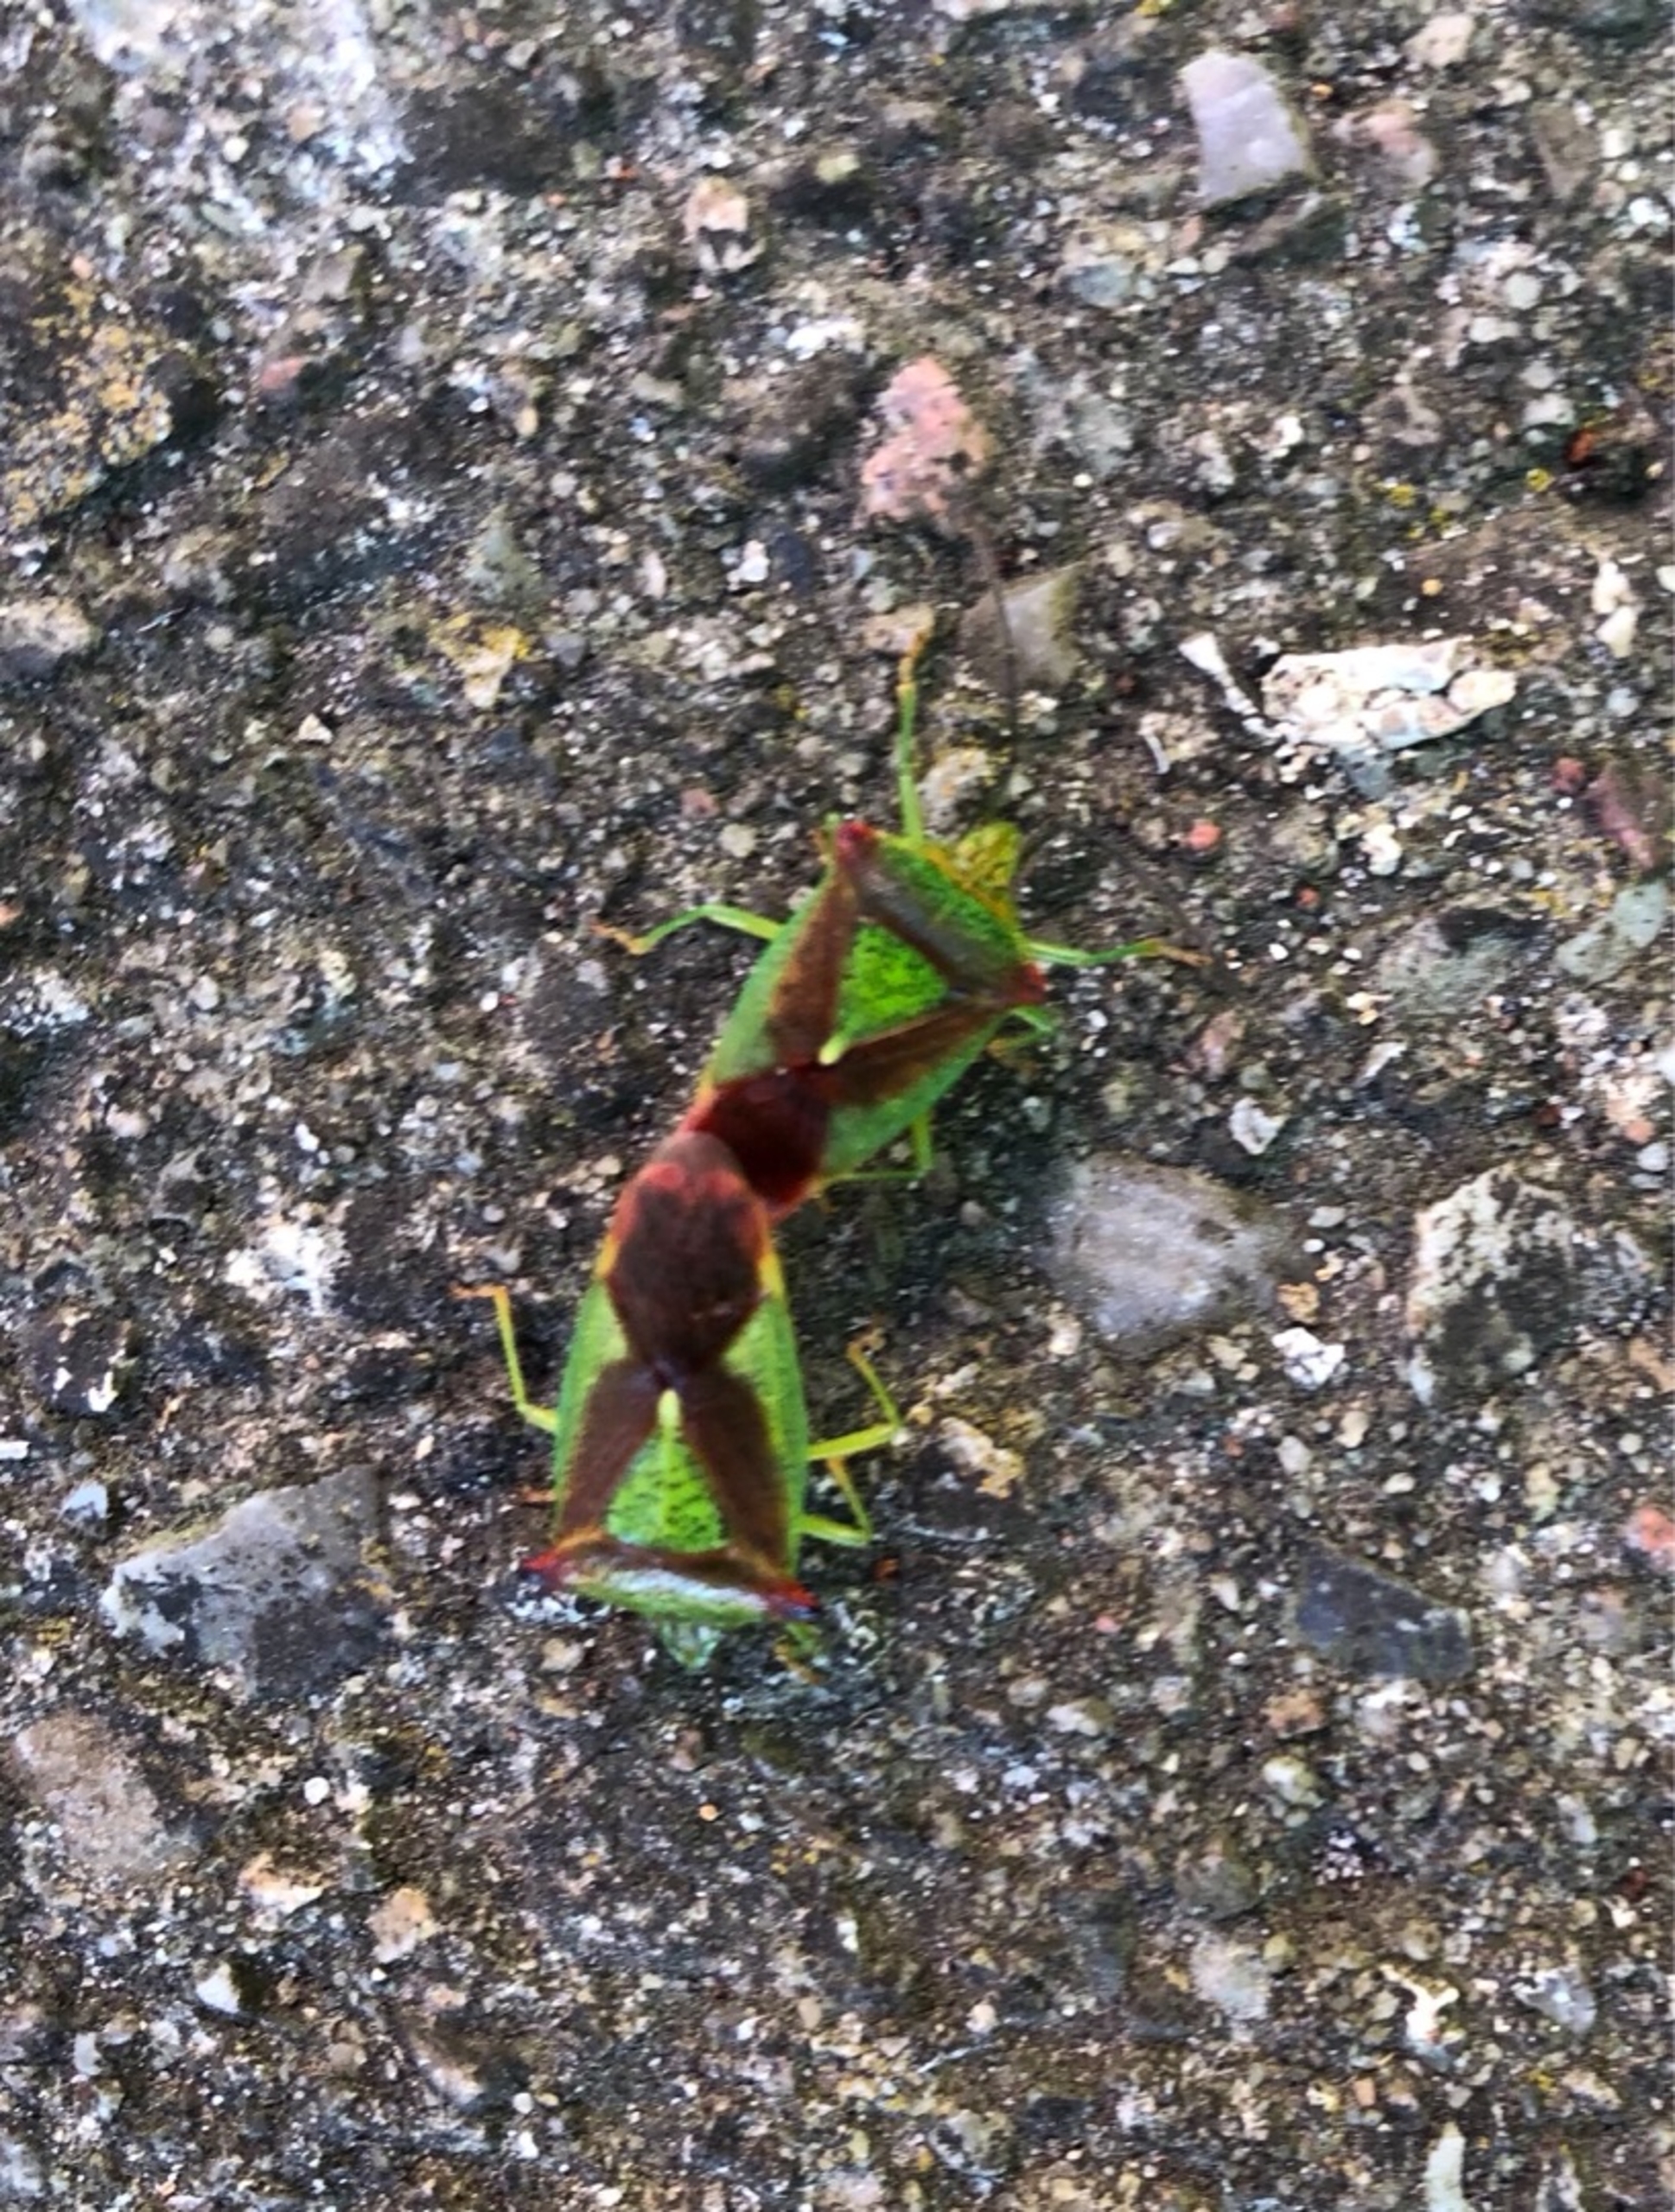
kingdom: Animalia
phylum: Arthropoda
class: Insecta
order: Hemiptera
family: Acanthosomatidae
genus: Acanthosoma
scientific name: Acanthosoma haemorrhoidale
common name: Stor løvtæge
